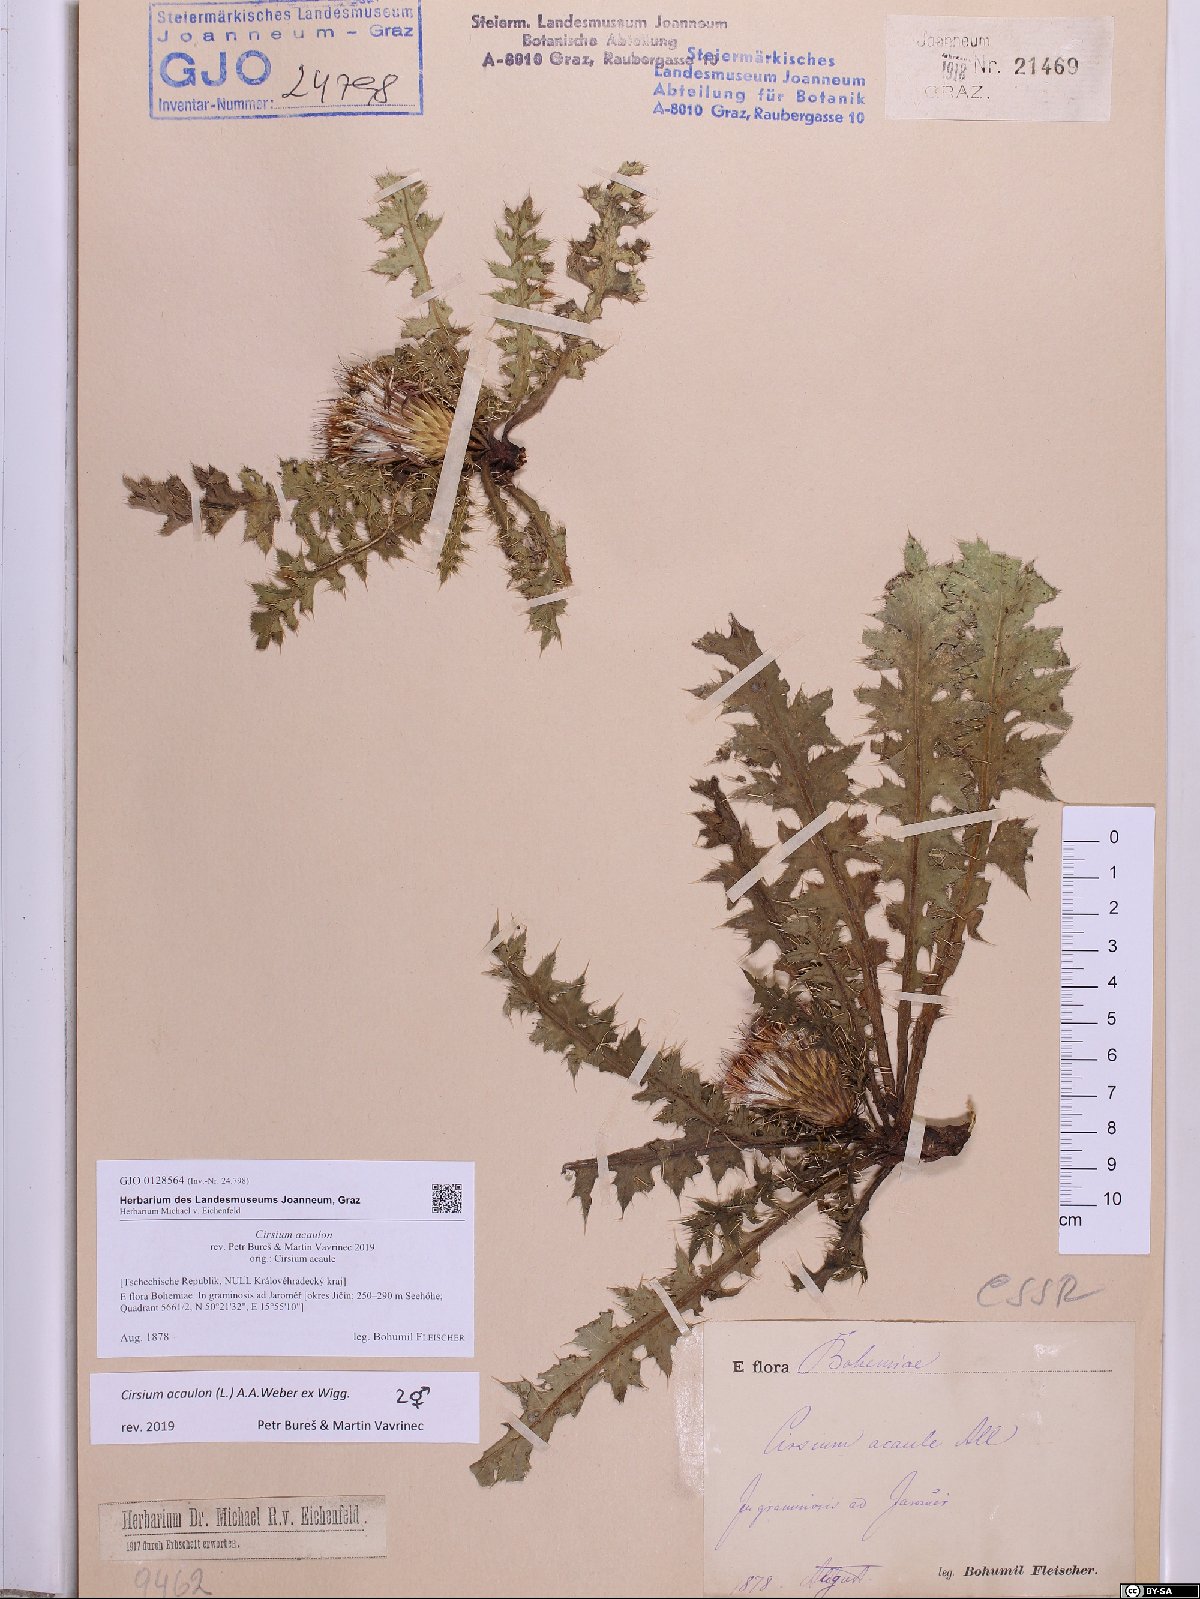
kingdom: Plantae
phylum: Tracheophyta
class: Magnoliopsida
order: Asterales
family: Asteraceae
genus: Cirsium
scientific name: Cirsium acaulon
